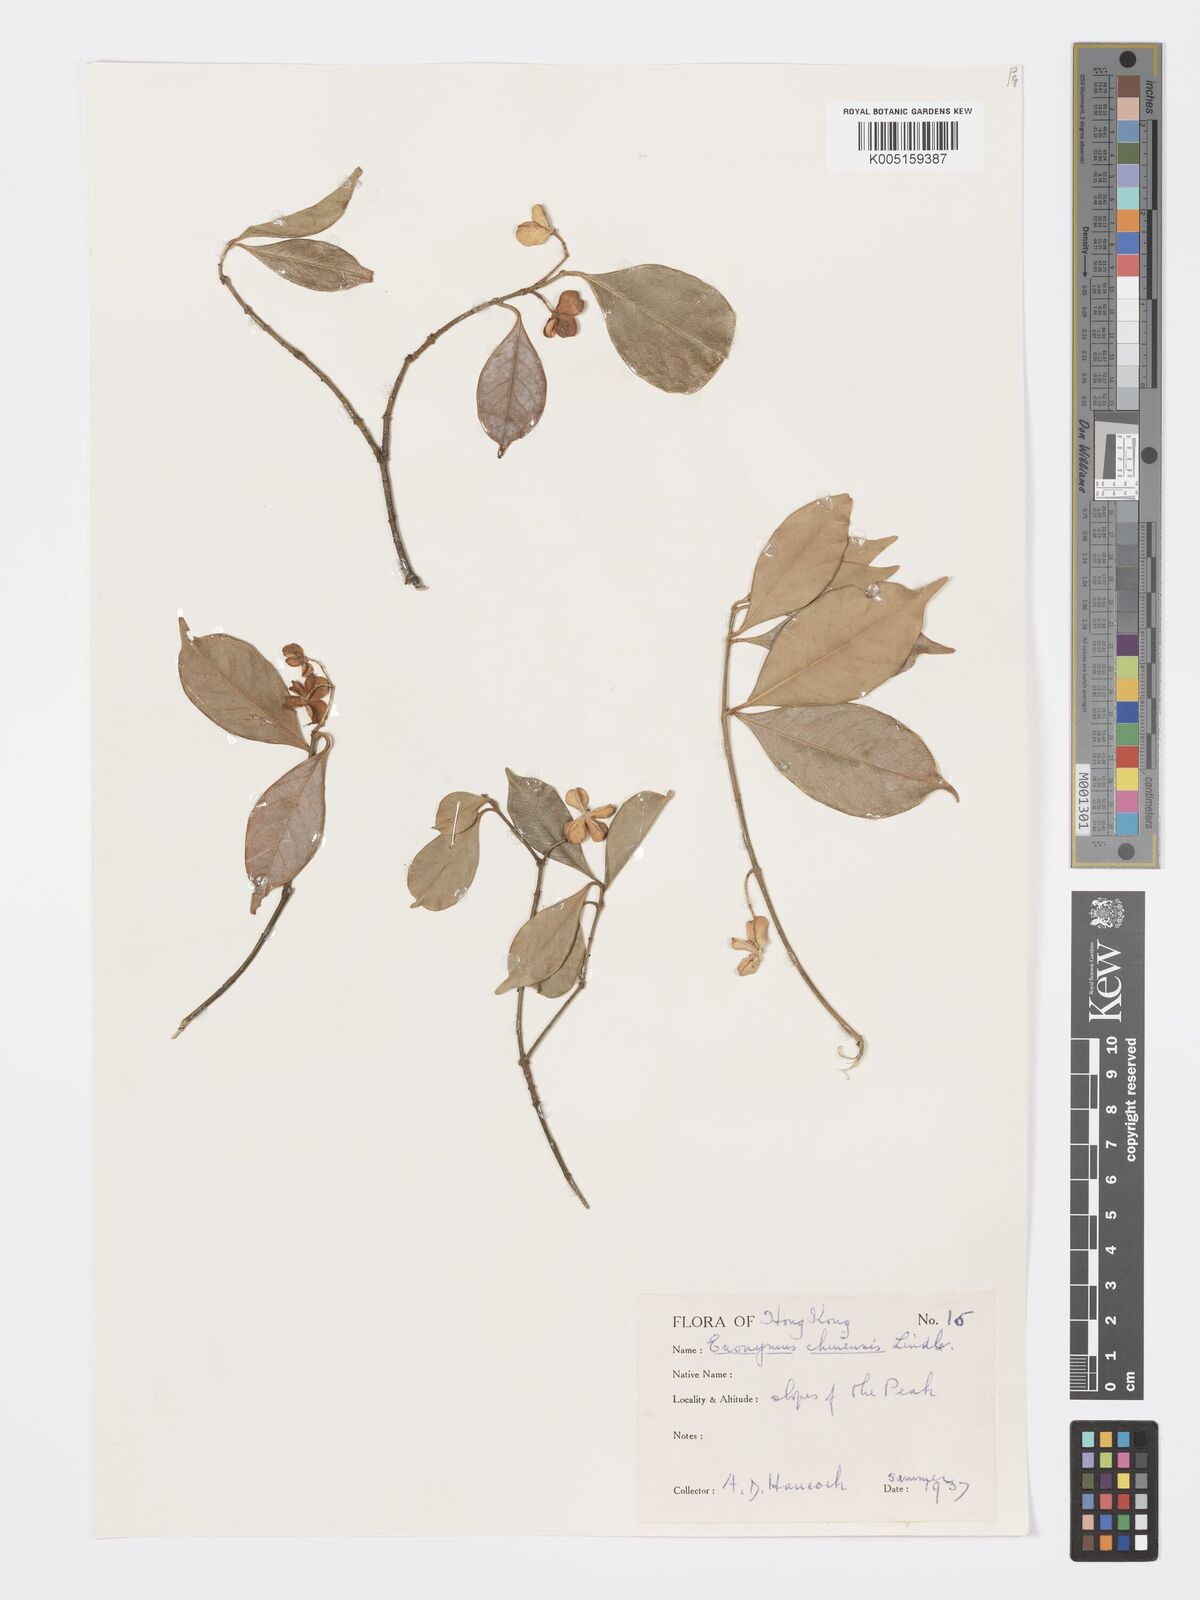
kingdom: Plantae
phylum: Tracheophyta
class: Magnoliopsida
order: Celastrales
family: Celastraceae
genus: Euonymus
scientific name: Euonymus nitidus
